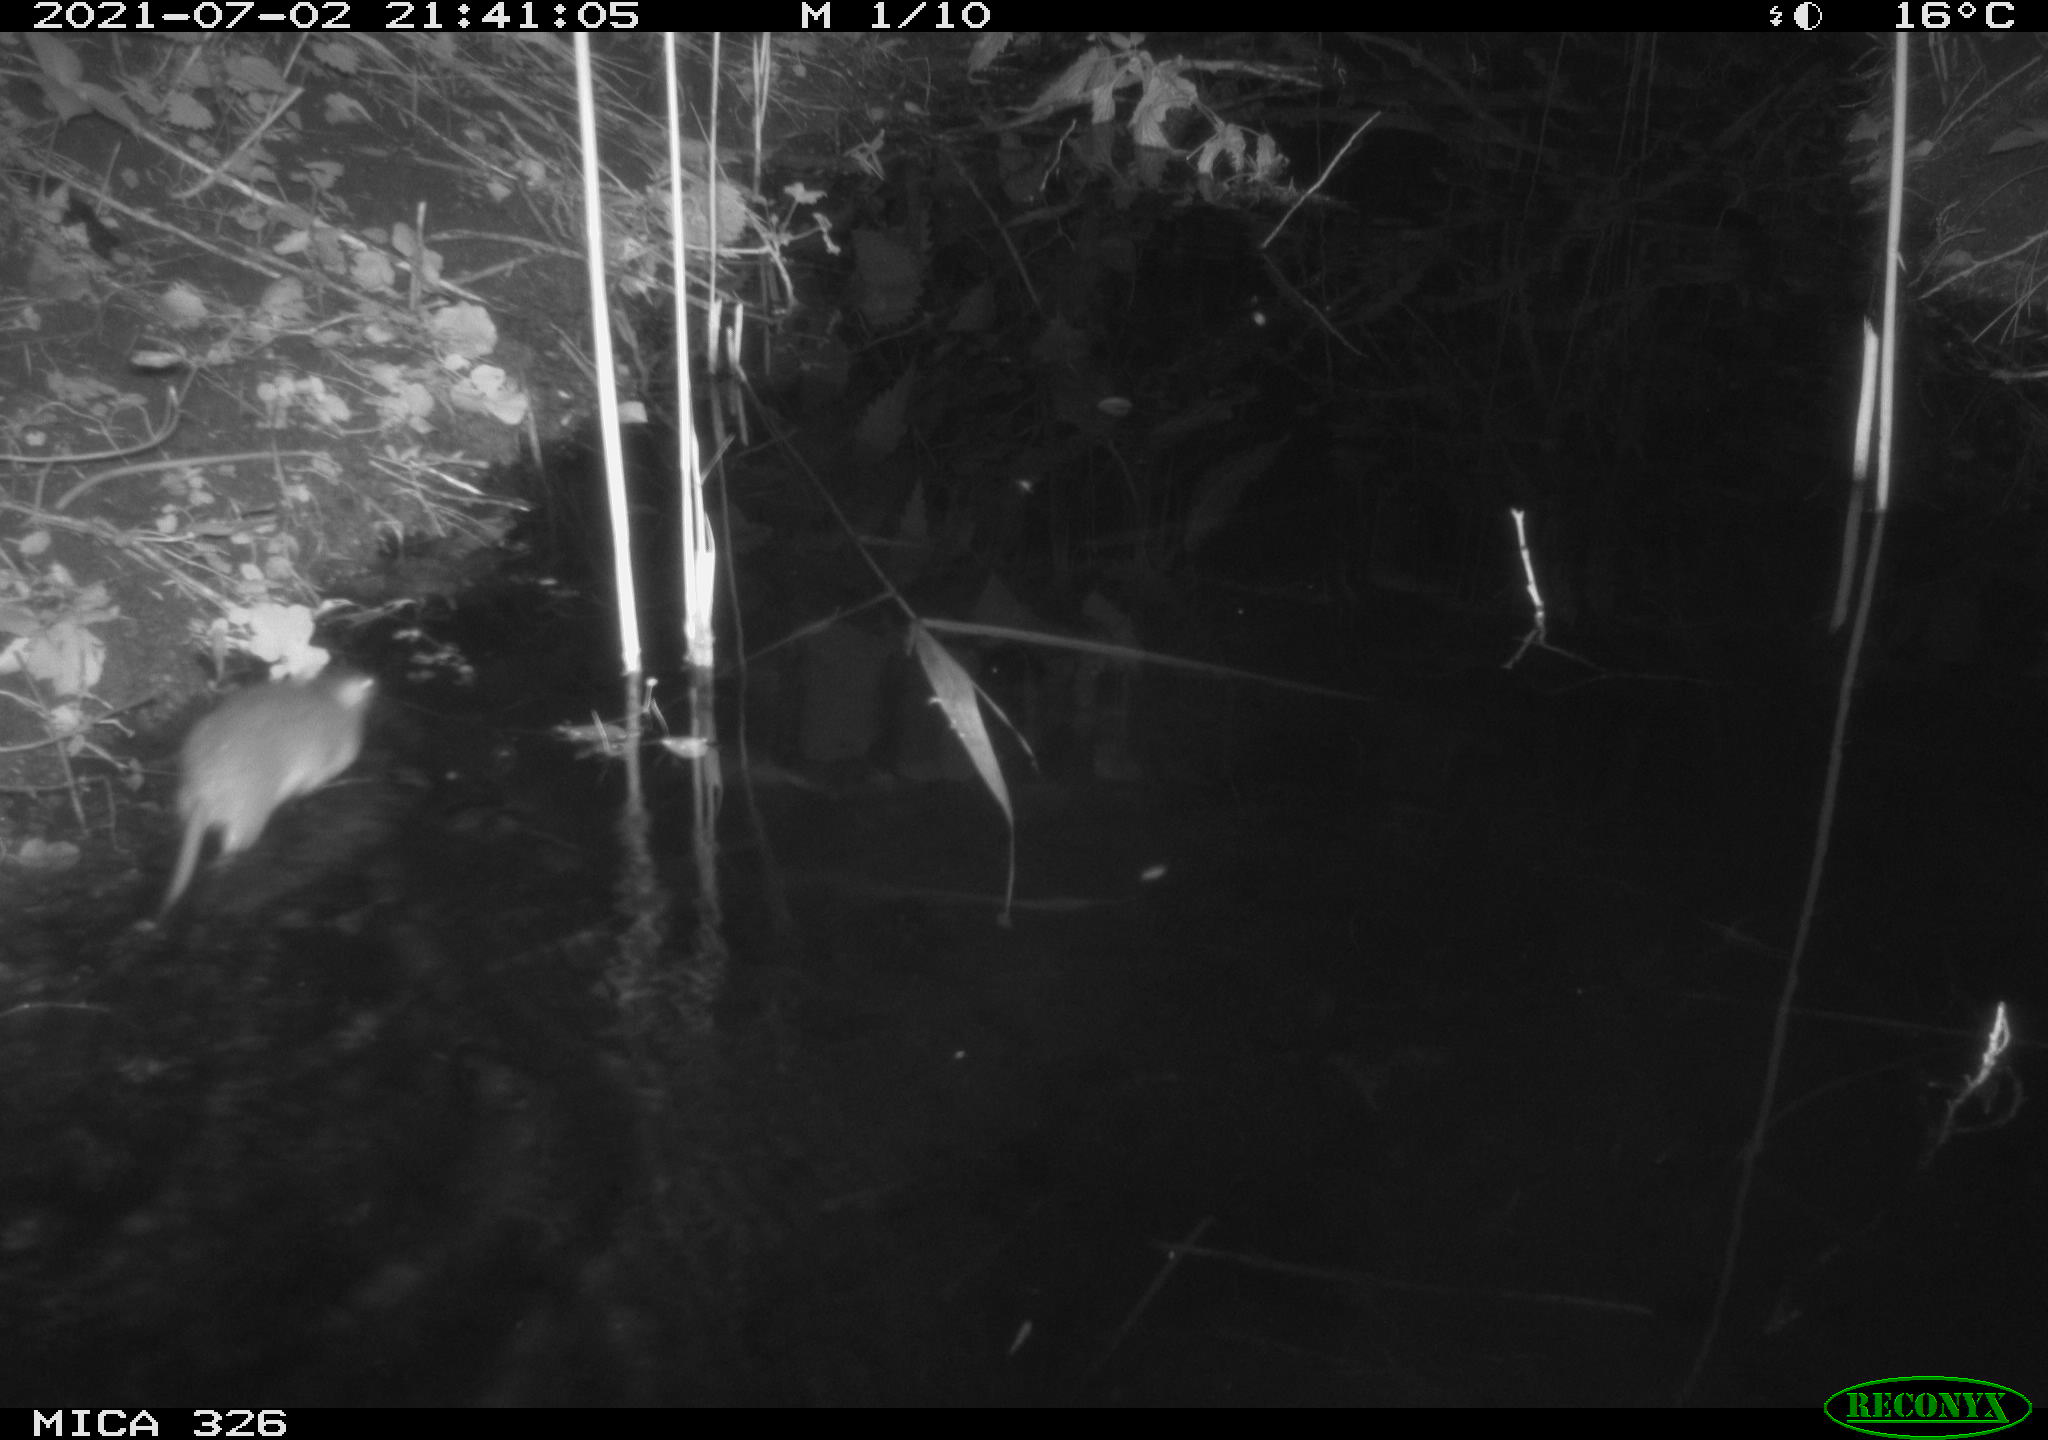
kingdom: Animalia
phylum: Chordata
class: Mammalia
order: Rodentia
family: Muridae
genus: Rattus
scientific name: Rattus norvegicus
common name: Brown rat
